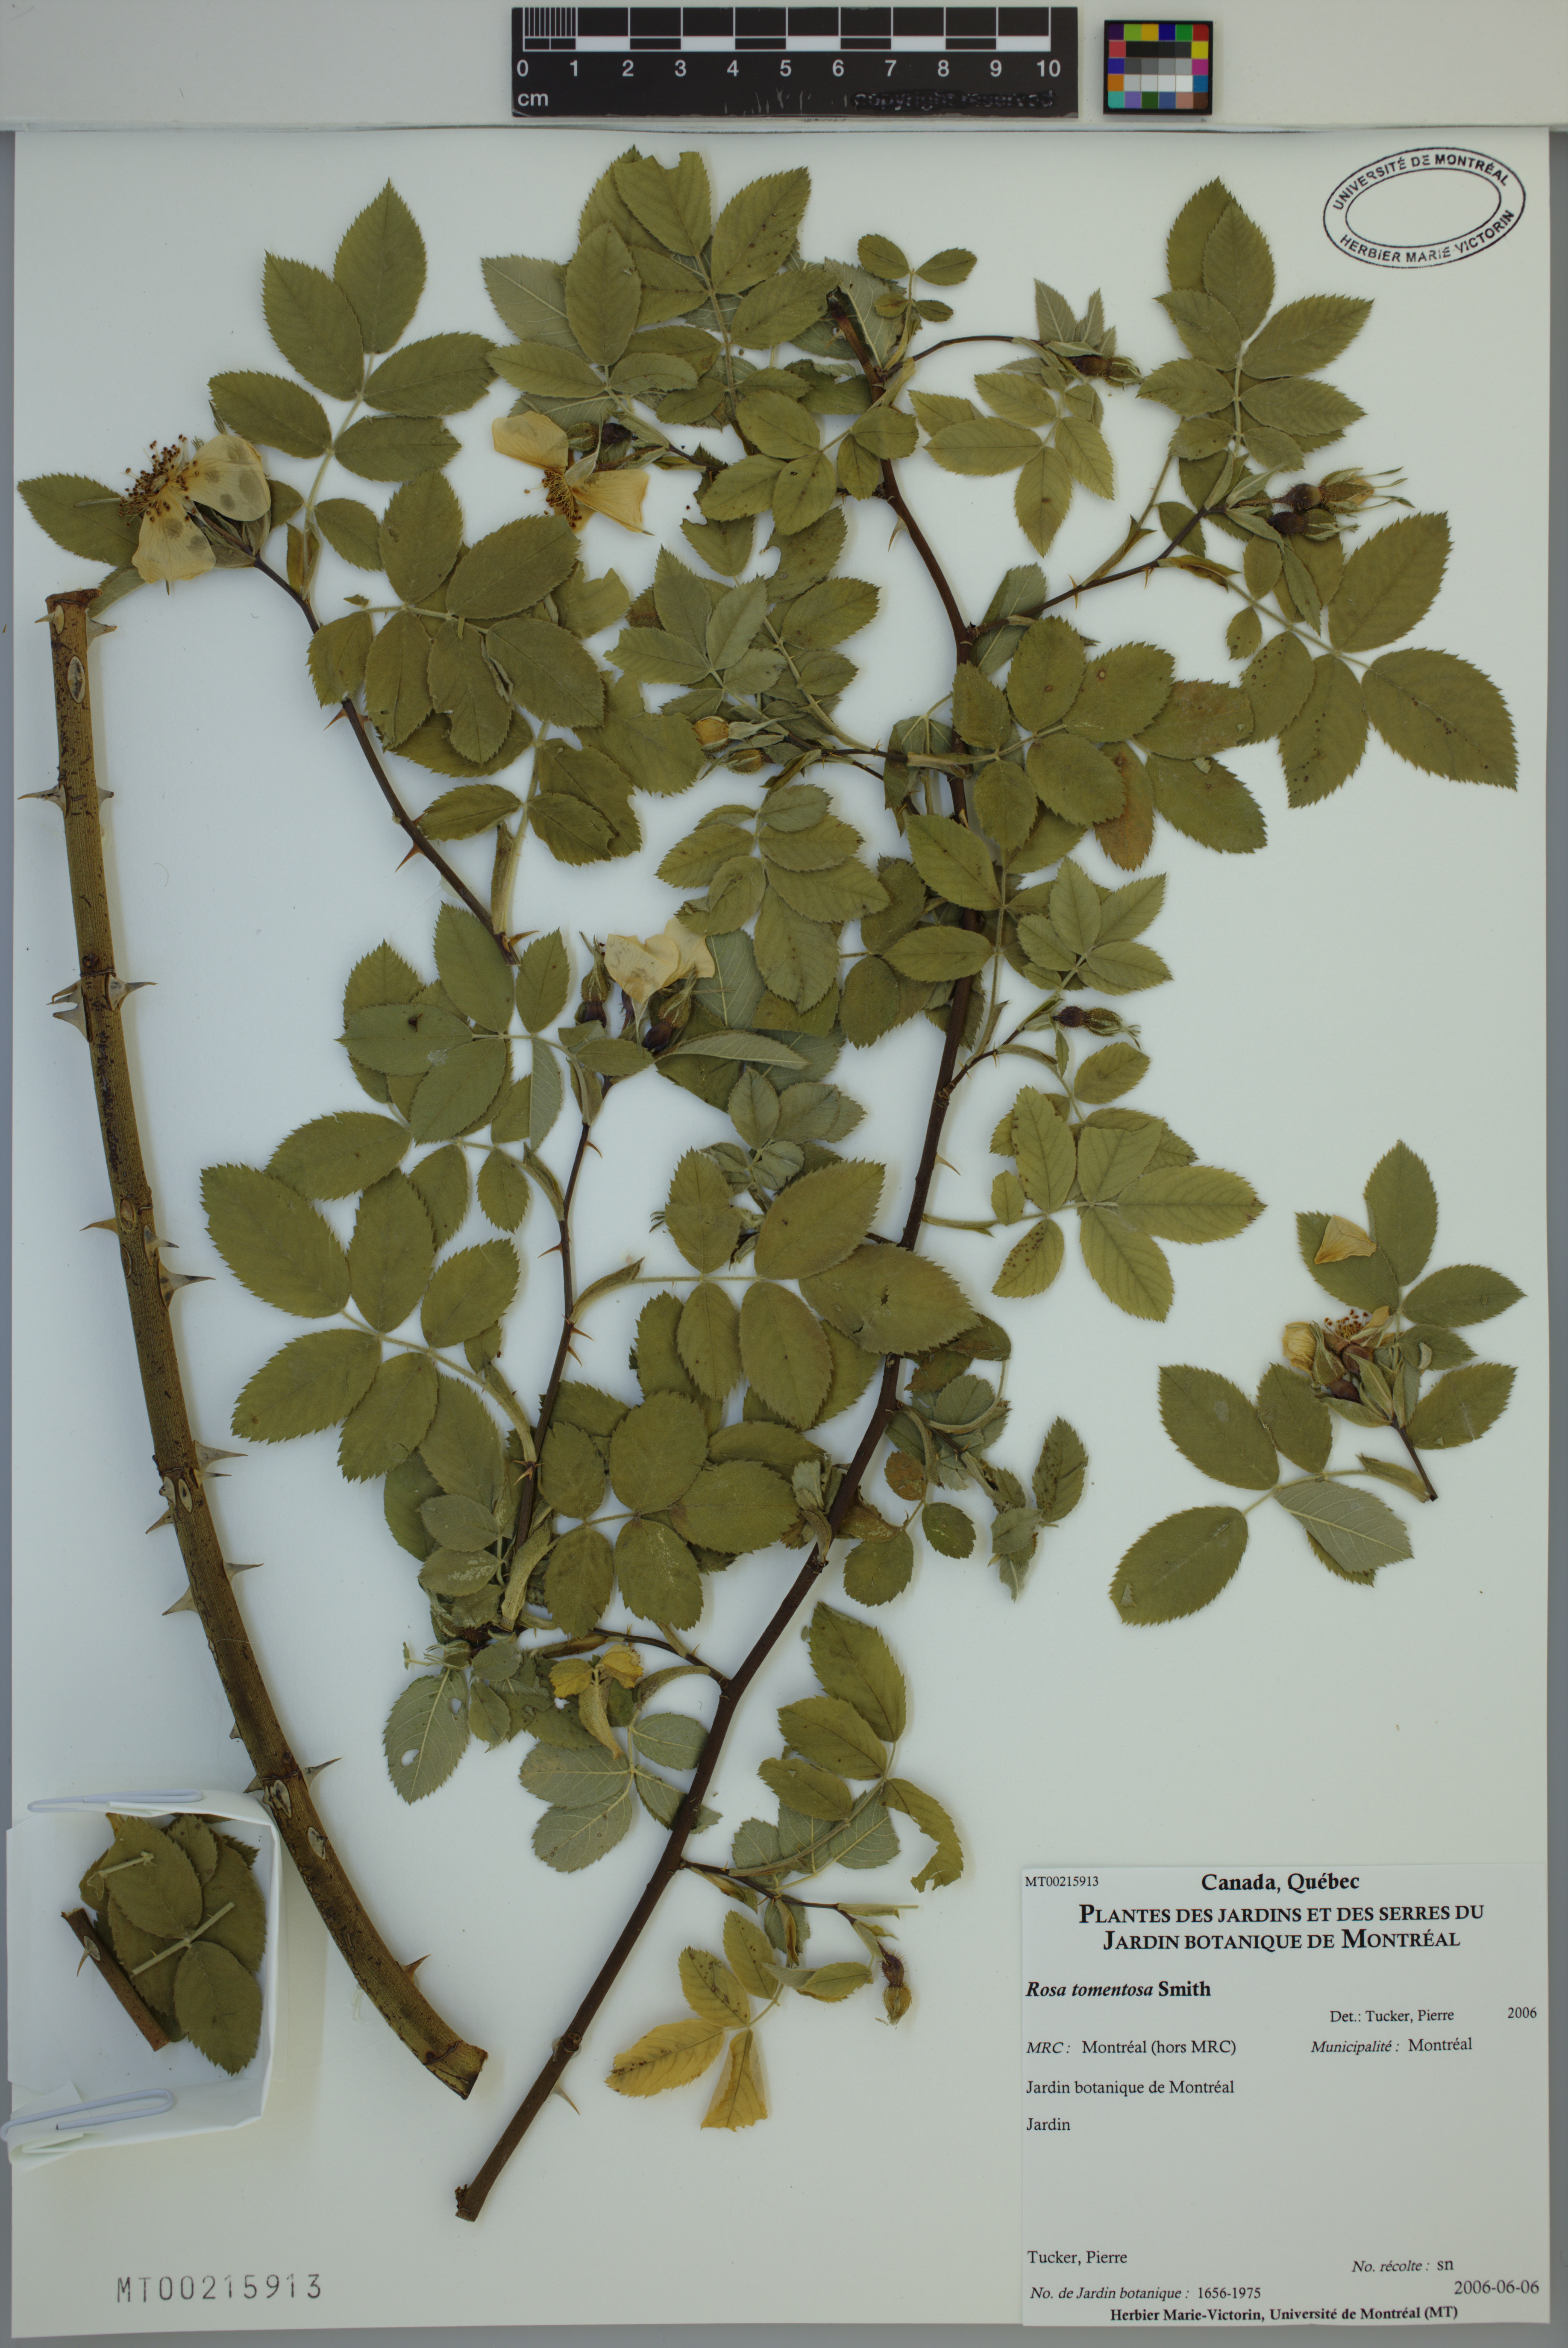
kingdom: Plantae
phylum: Tracheophyta
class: Magnoliopsida
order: Rosales
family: Rosaceae
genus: Rosa
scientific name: Rosa tomentosa
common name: Downy rose
